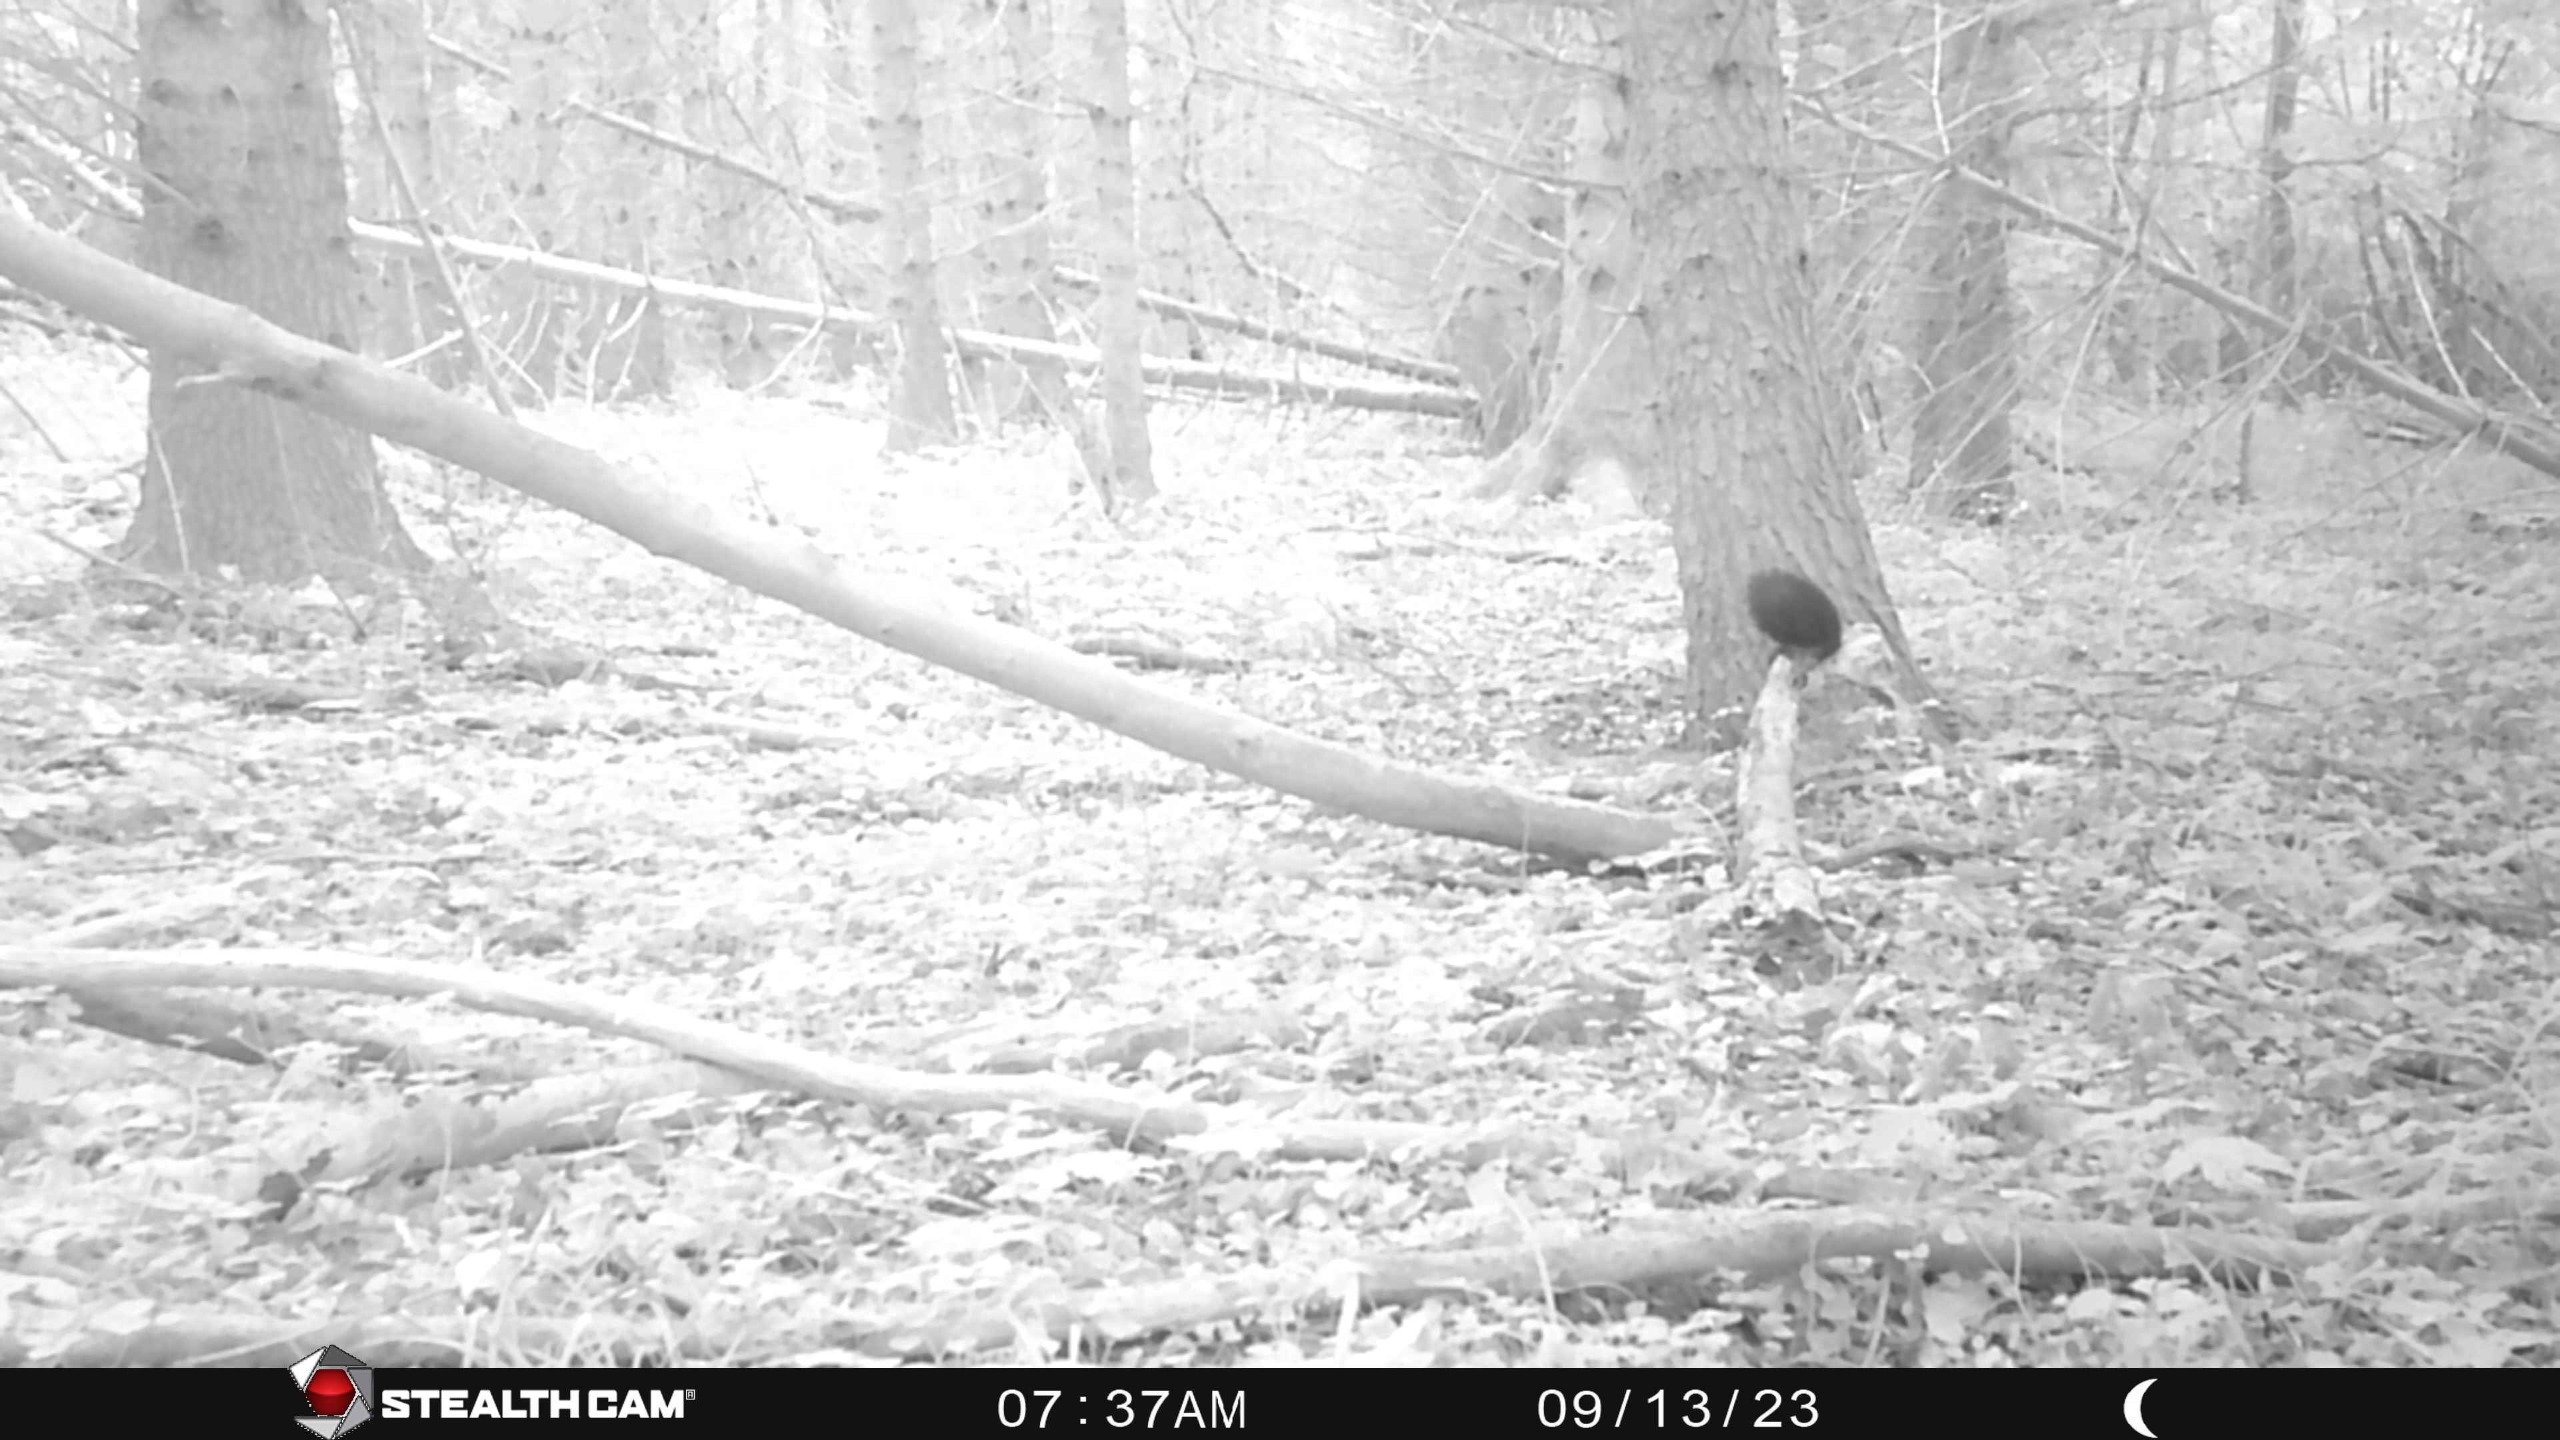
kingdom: Animalia
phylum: Chordata
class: Mammalia
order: Rodentia
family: Sciuridae
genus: Sciurus
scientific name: Sciurus vulgaris
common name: Egern
